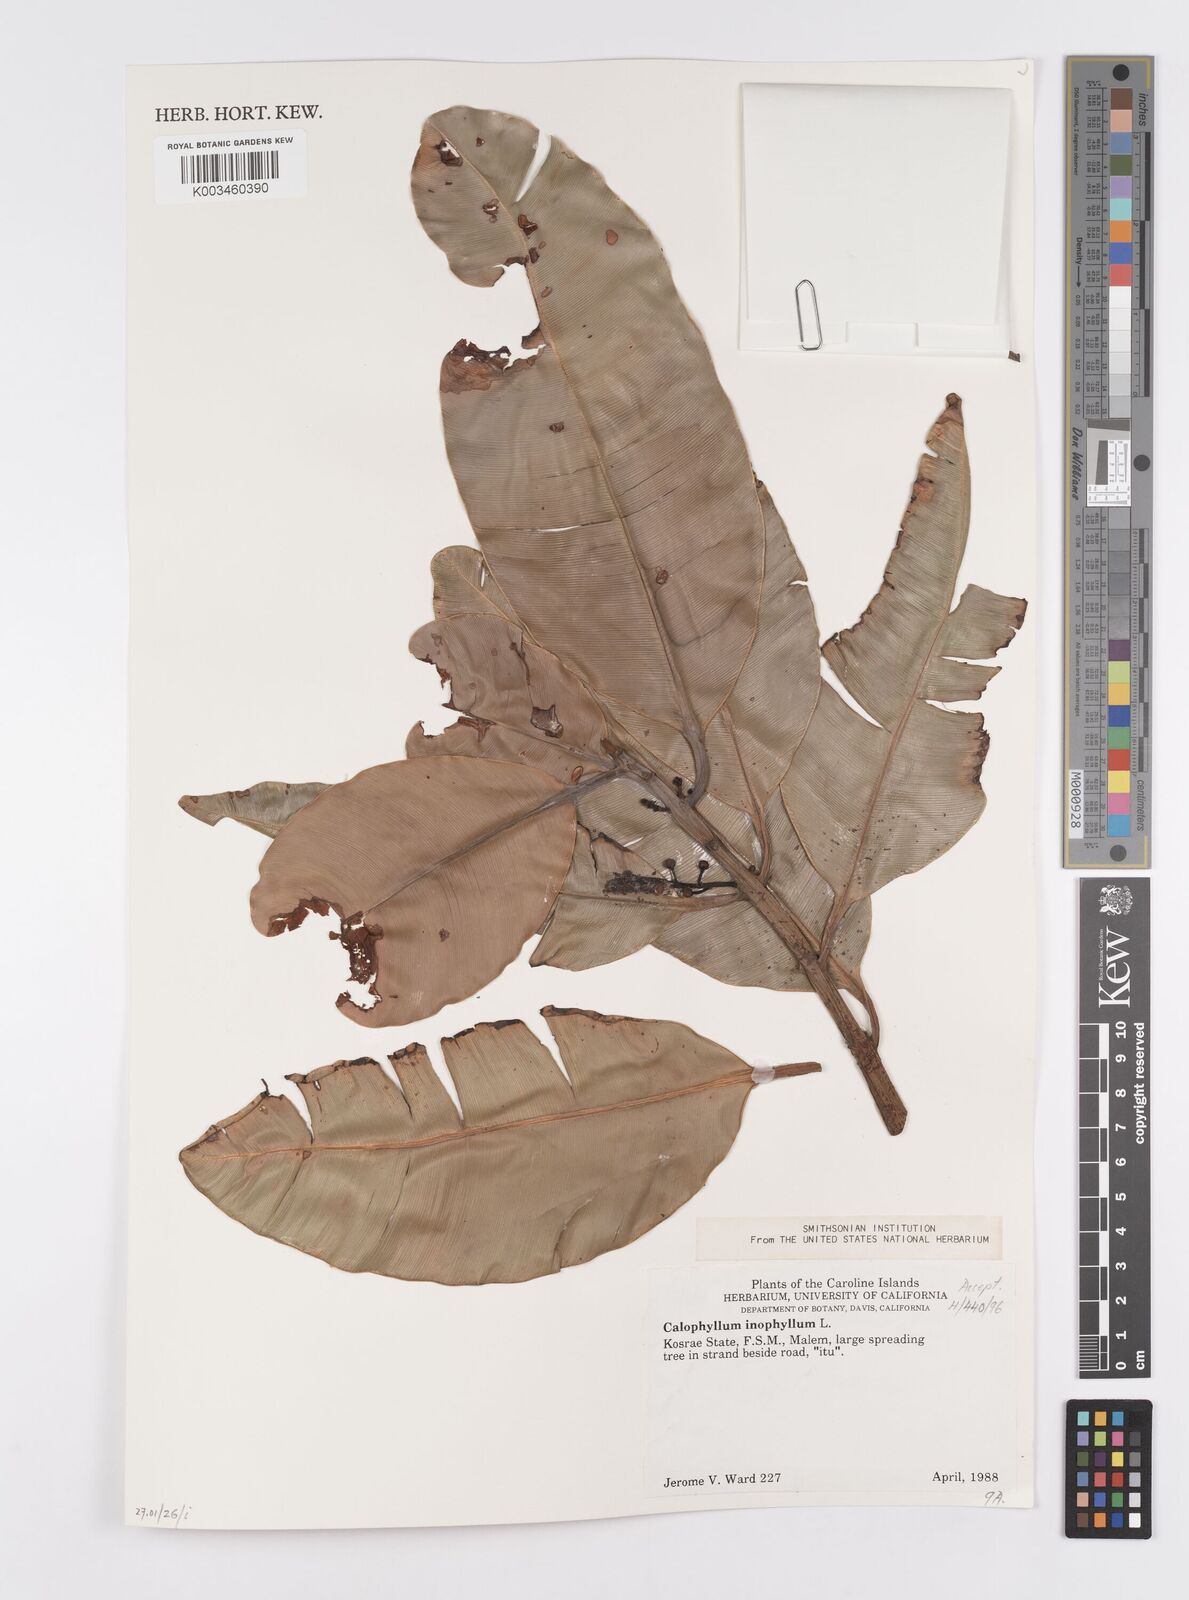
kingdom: Plantae
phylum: Tracheophyta
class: Magnoliopsida
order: Malpighiales
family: Calophyllaceae
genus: Calophyllum
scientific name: Calophyllum inophyllum
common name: Alexandrian laurel
